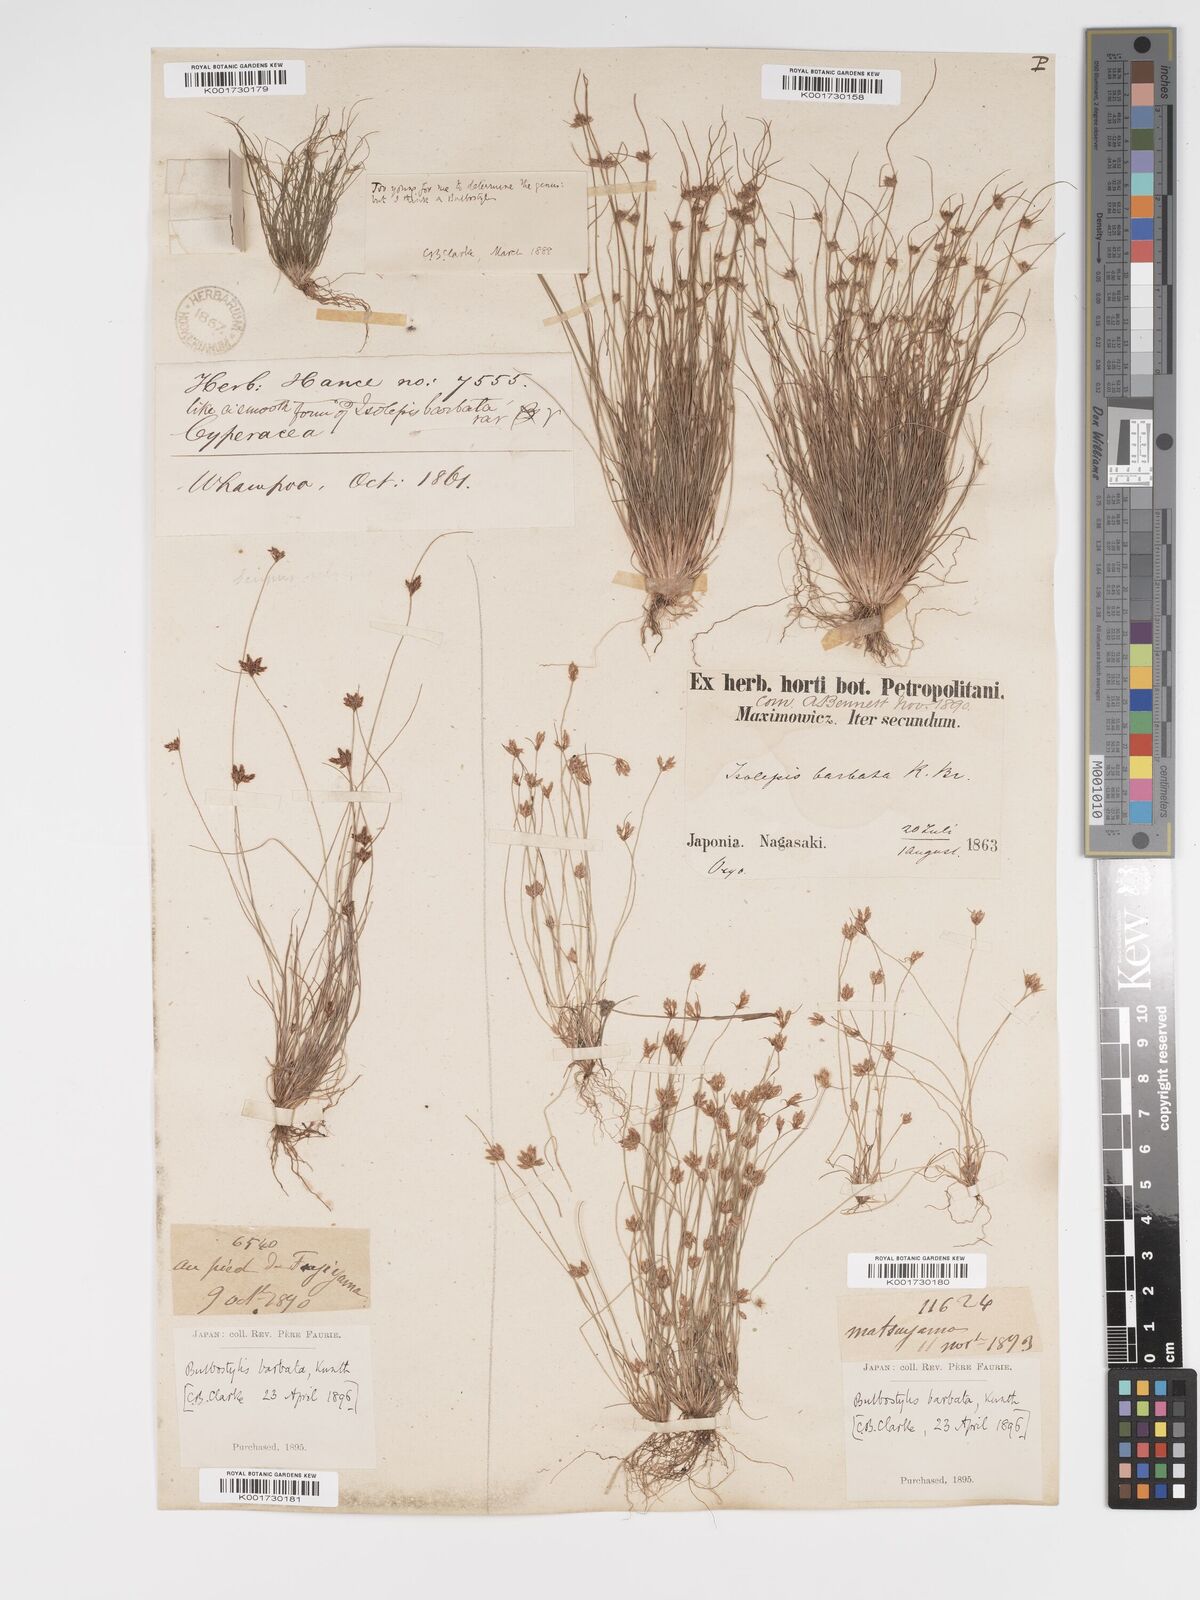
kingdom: Plantae
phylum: Tracheophyta
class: Liliopsida
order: Poales
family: Cyperaceae
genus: Bulbostylis
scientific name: Bulbostylis barbata
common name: Watergrass
